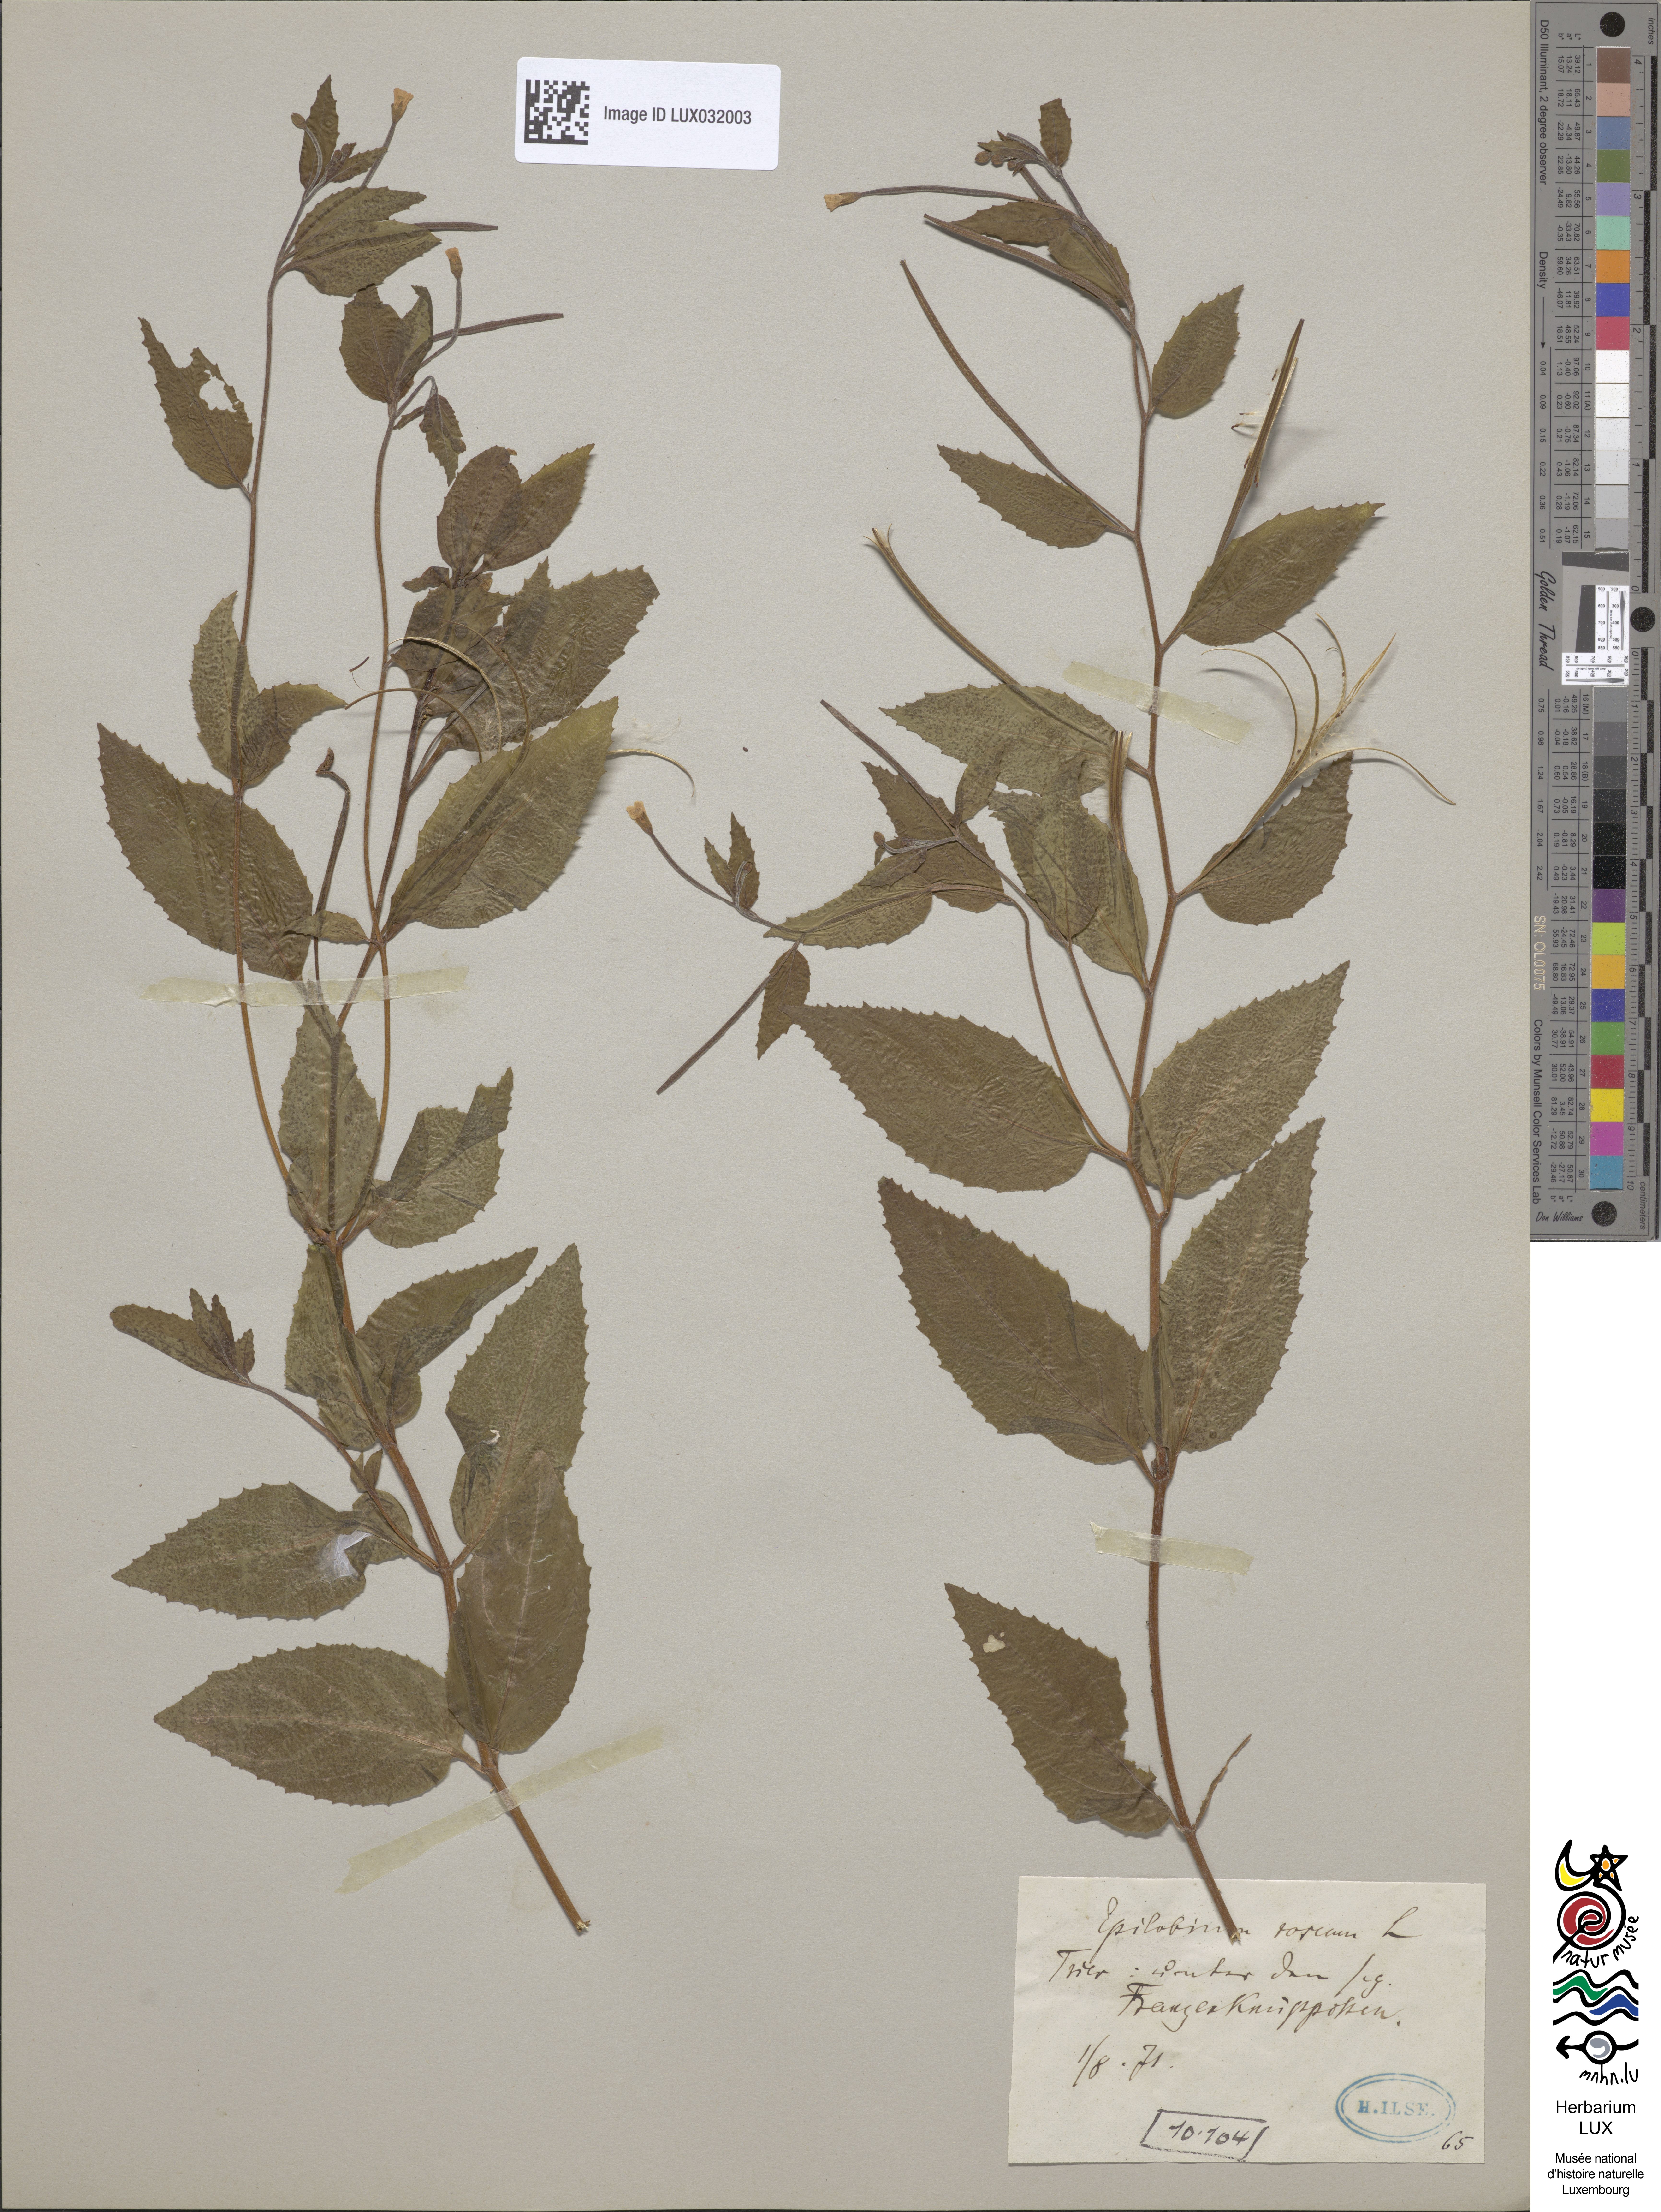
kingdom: Plantae
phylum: Tracheophyta
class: Magnoliopsida
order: Myrtales
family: Onagraceae
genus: Epilobium
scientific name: Epilobium roseum
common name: Pale willowherb
